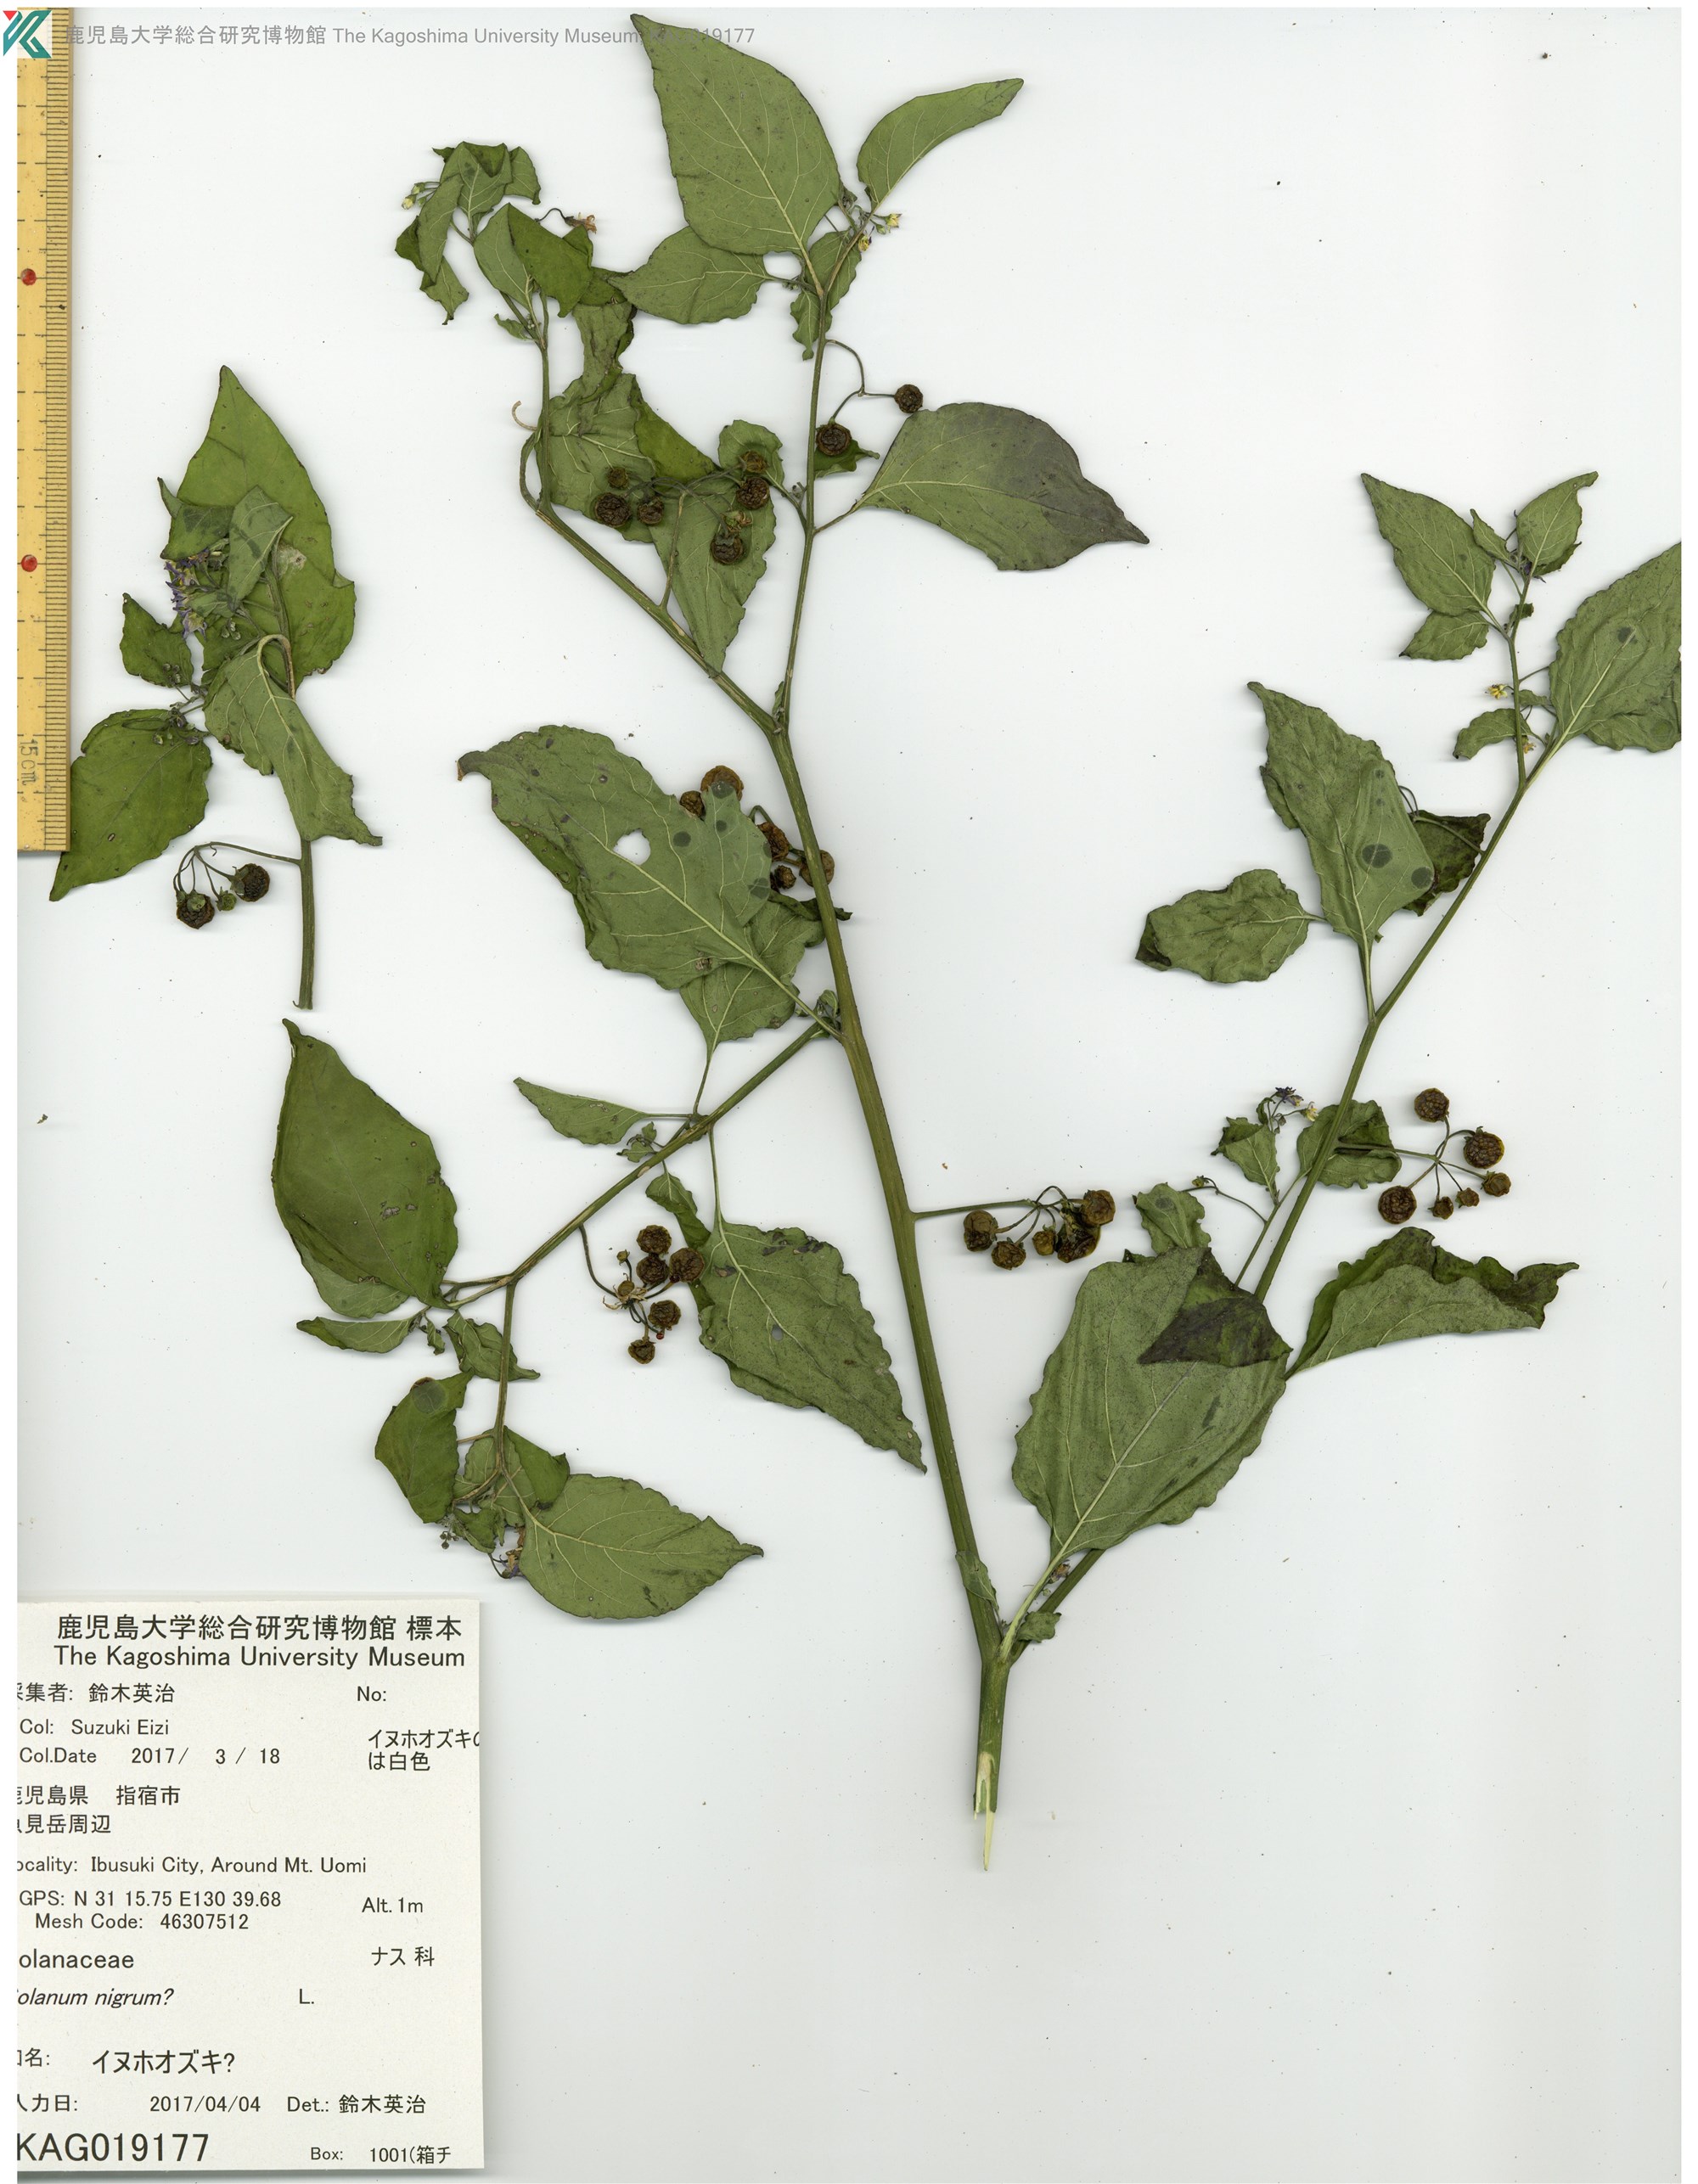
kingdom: Plantae
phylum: Tracheophyta
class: Magnoliopsida
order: Solanales
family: Solanaceae
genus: Solanum
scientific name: Solanum nigrum
